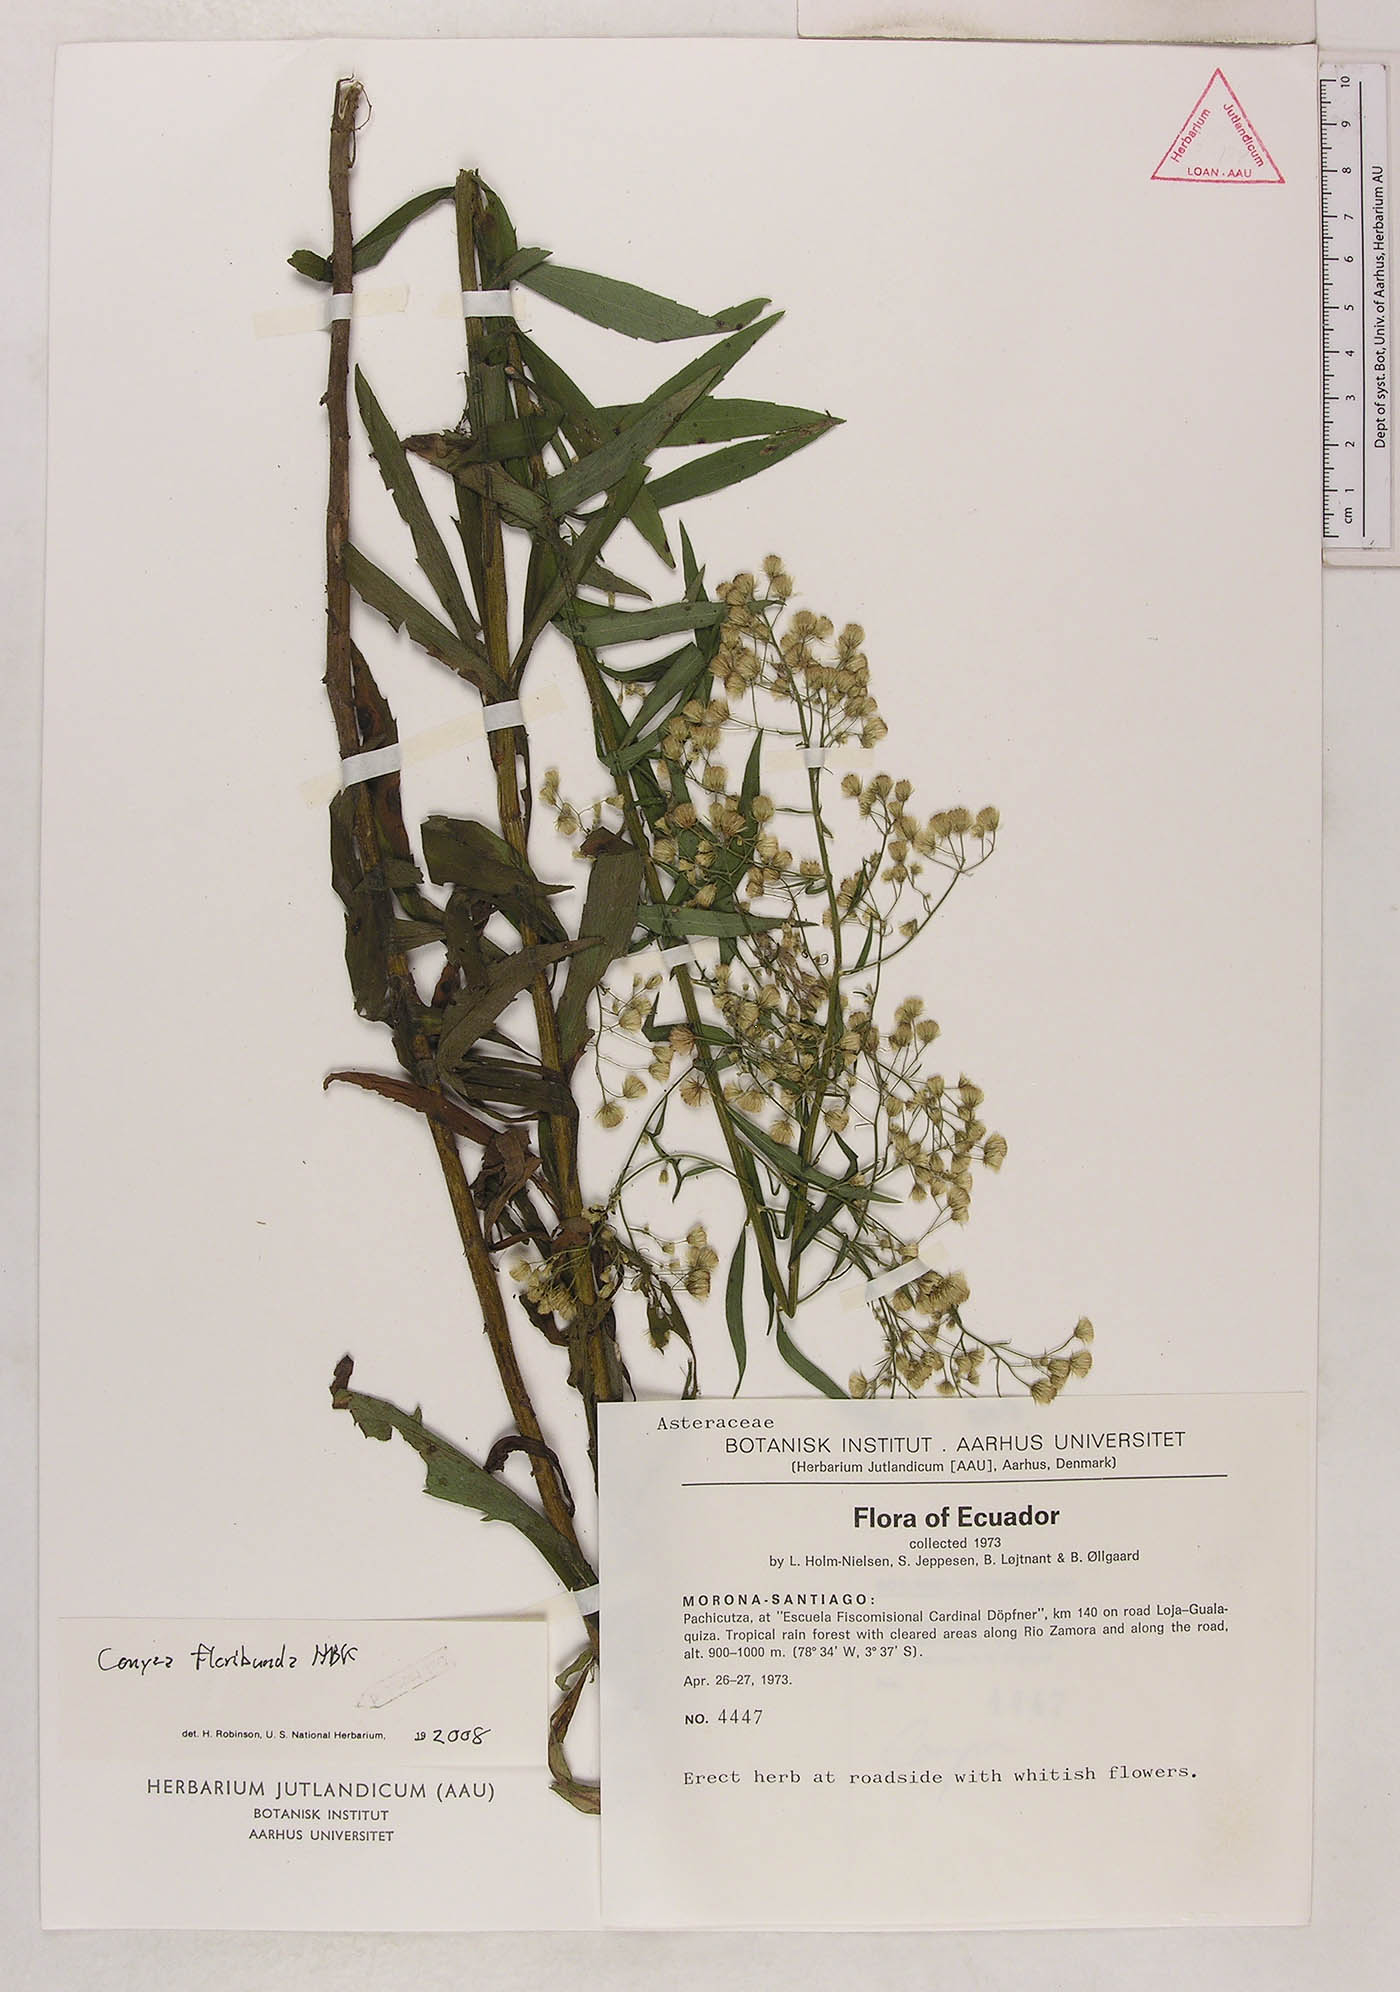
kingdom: Plantae
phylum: Tracheophyta
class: Magnoliopsida
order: Asterales
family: Asteraceae
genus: Erigeron
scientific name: Erigeron floribundus
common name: Bilbao fleabane
